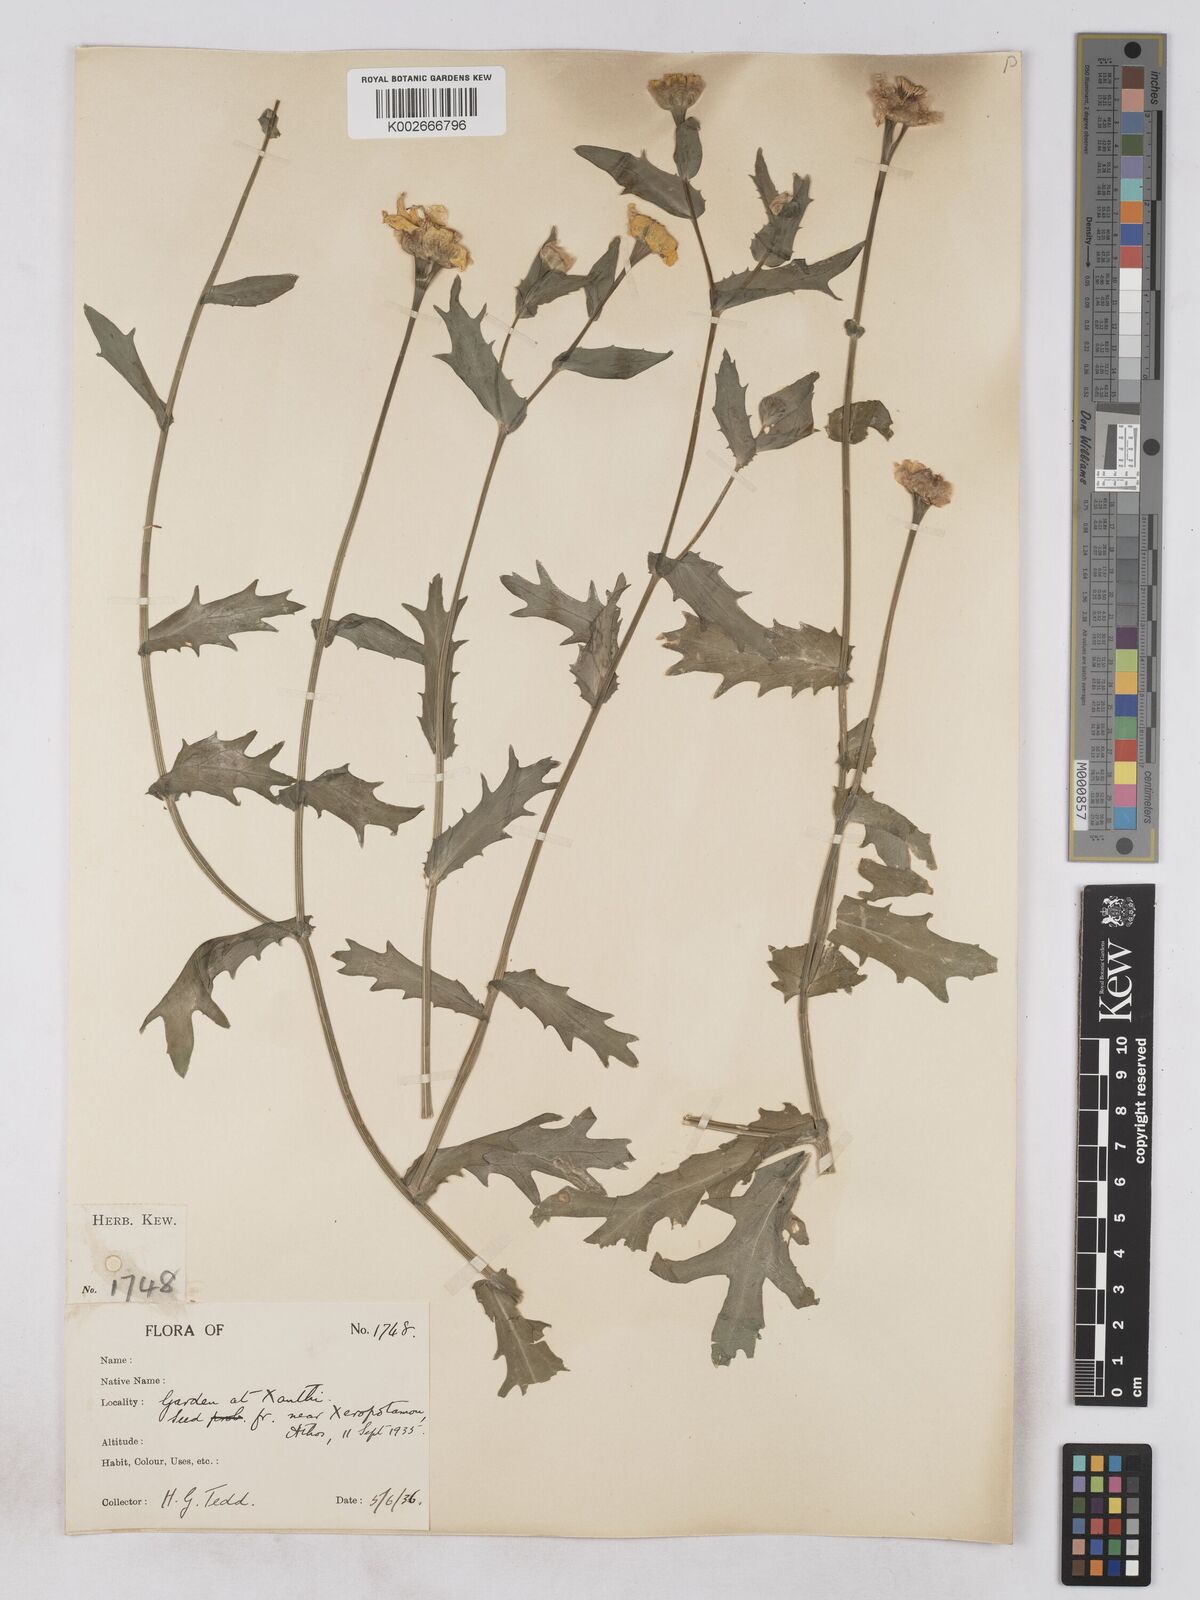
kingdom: Plantae
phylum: Tracheophyta
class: Magnoliopsida
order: Asterales
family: Asteraceae
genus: Glebionis
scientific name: Glebionis segetum
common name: Corndaisy
